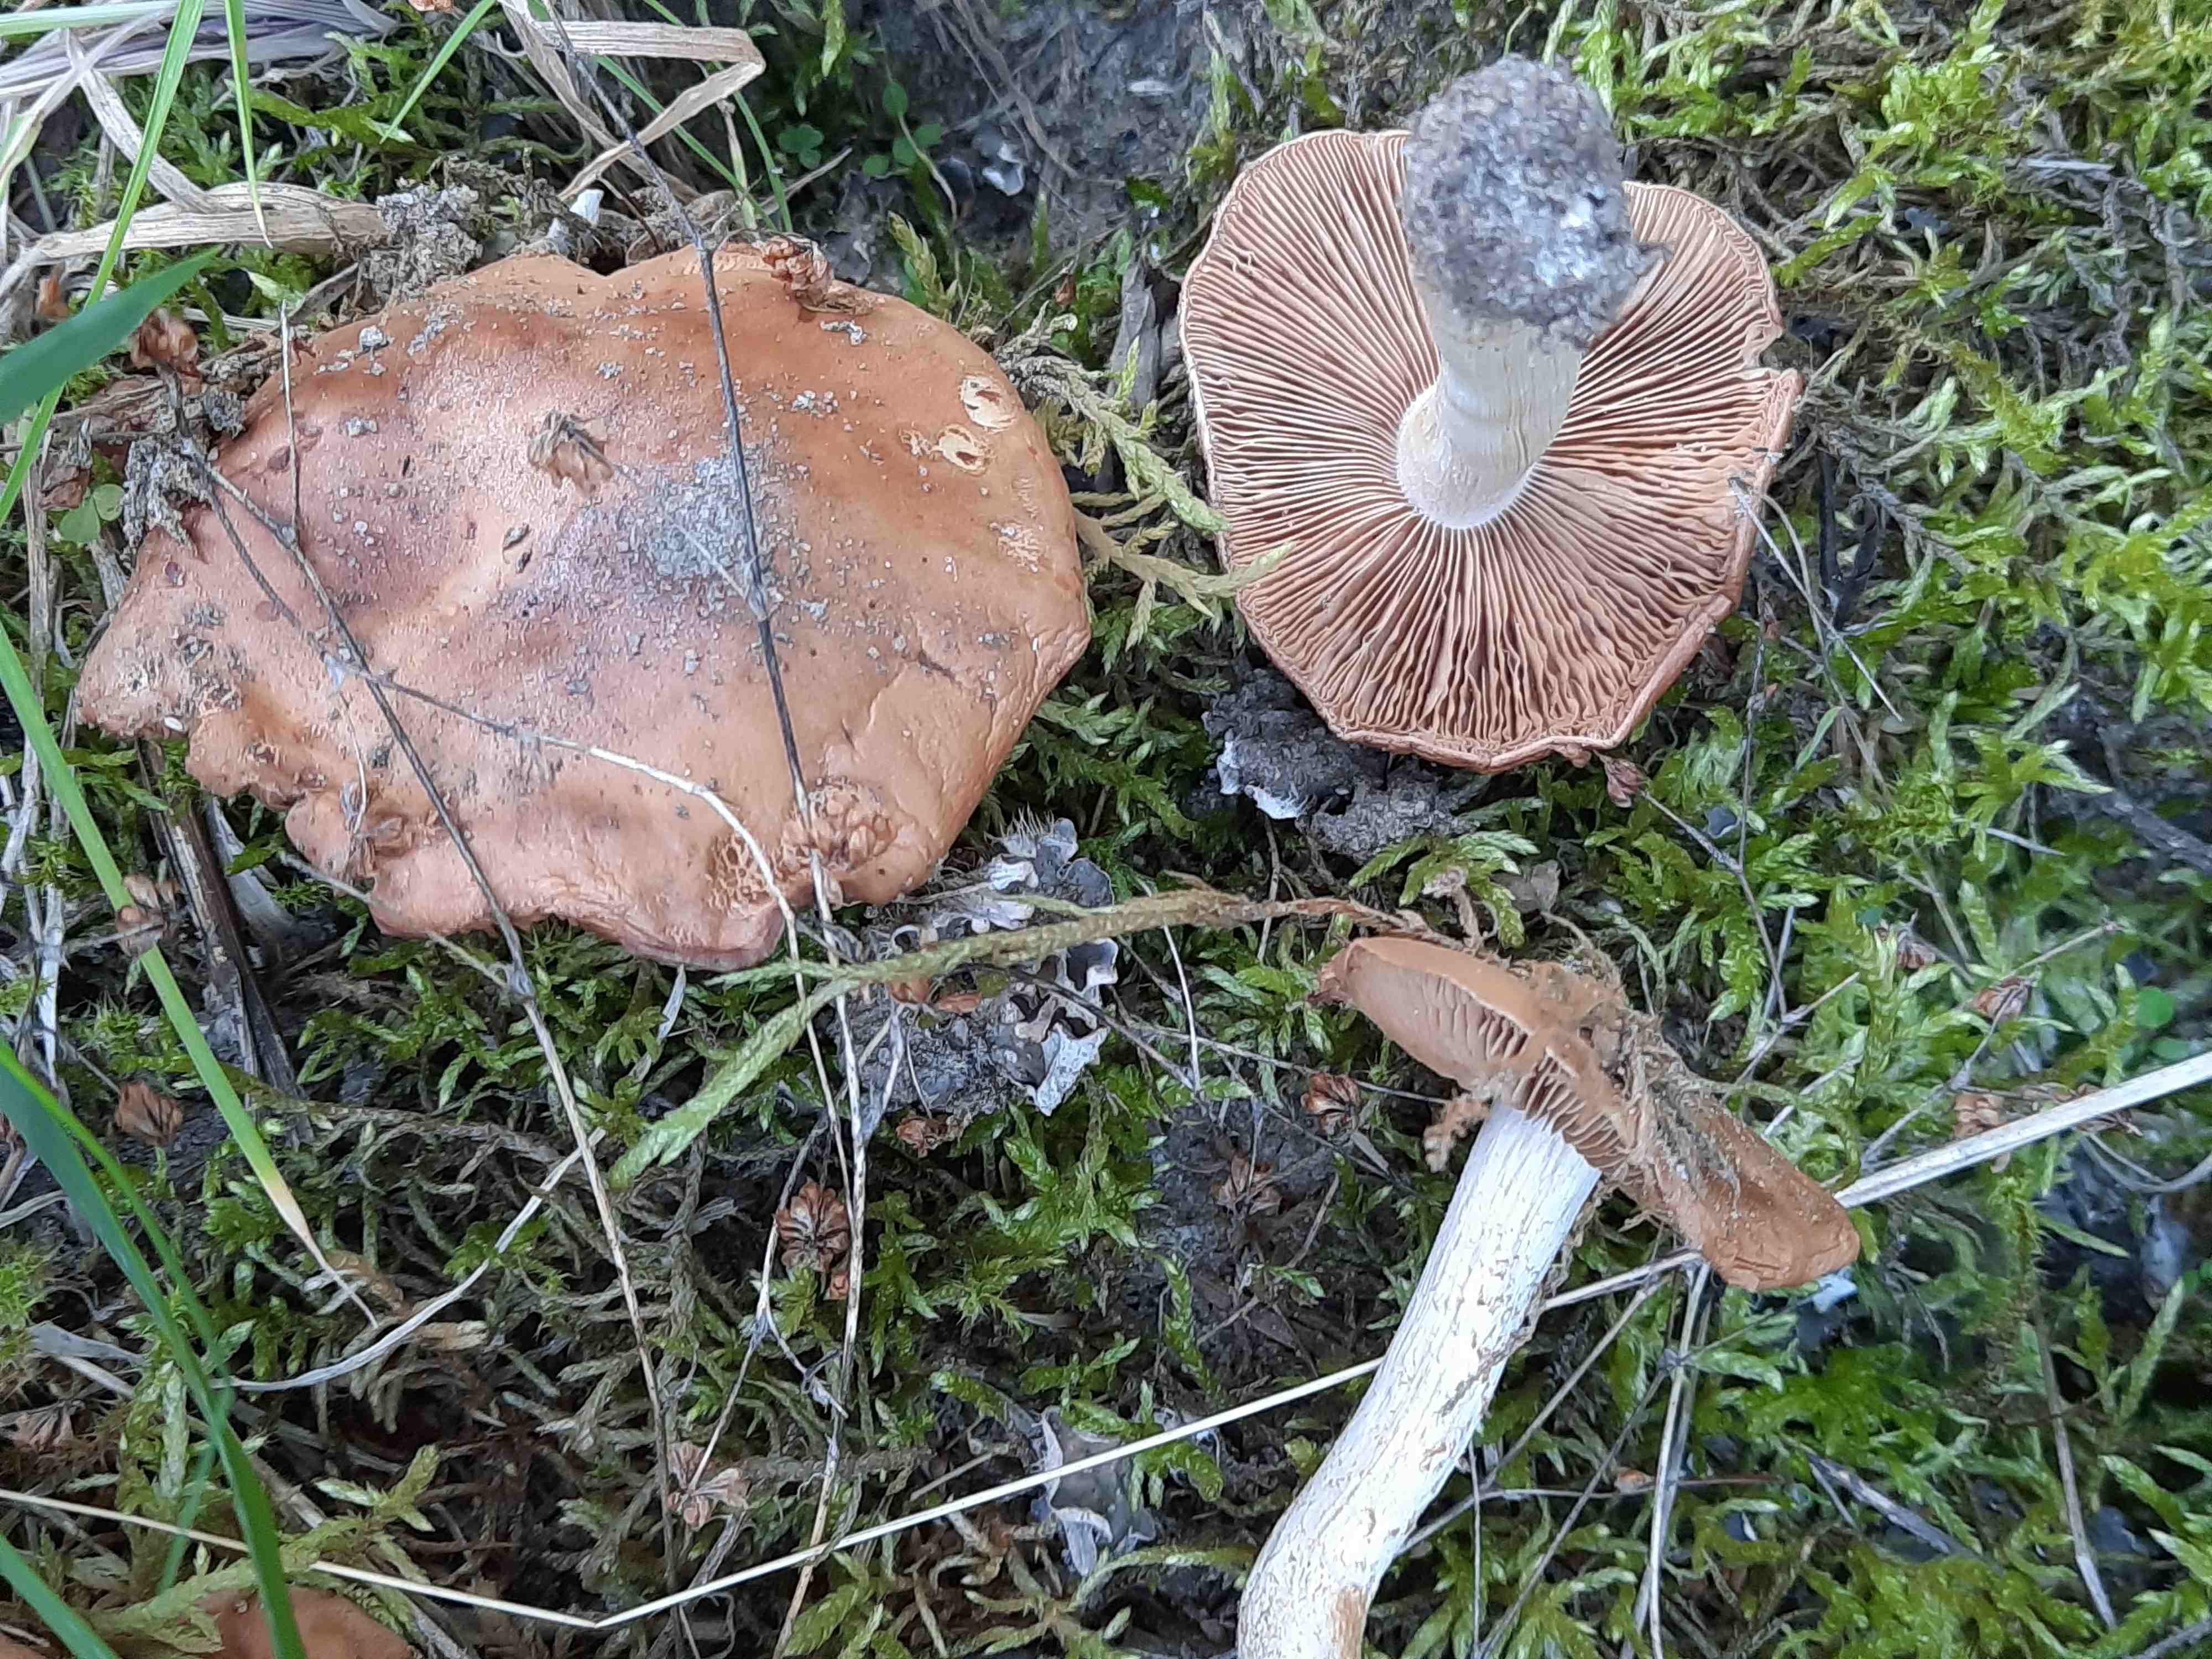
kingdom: Fungi
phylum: Basidiomycota
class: Agaricomycetes
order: Agaricales
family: Hymenogastraceae
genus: Hebeloma
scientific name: Hebeloma theobrominum
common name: rødbrun tåreblad
